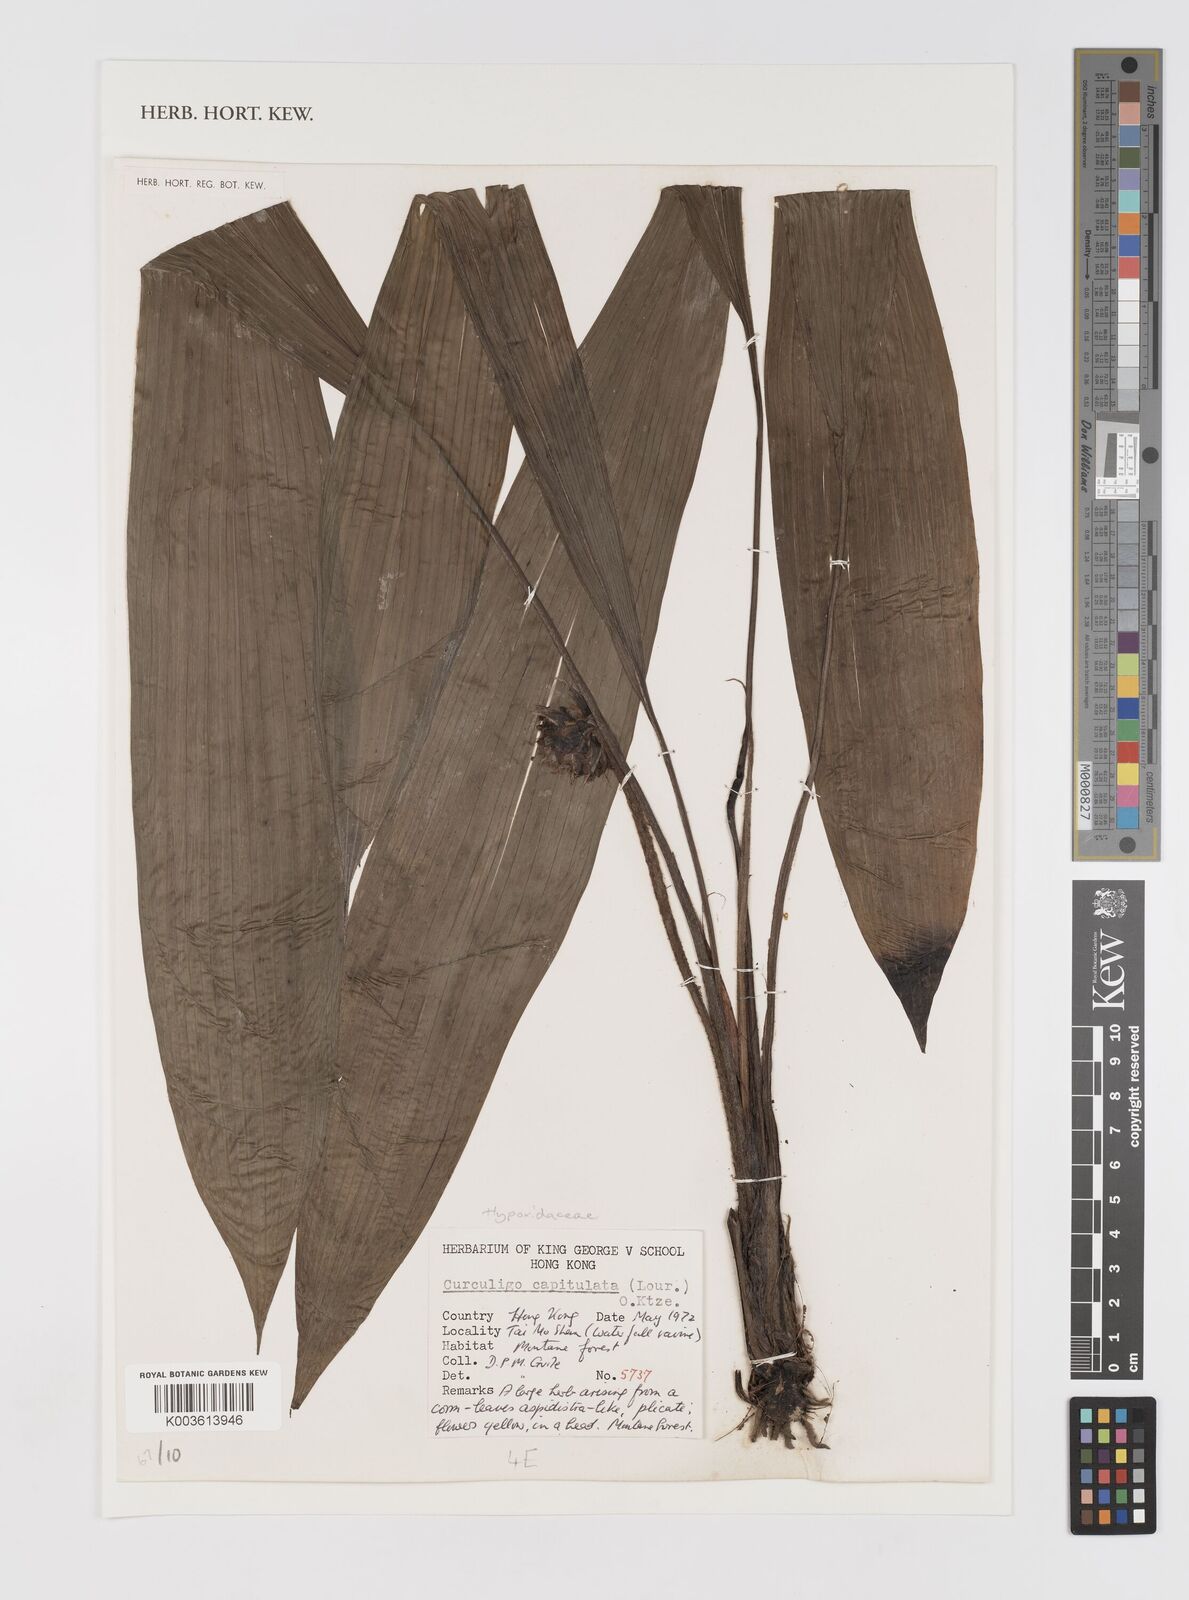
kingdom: Plantae
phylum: Tracheophyta
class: Liliopsida
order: Asparagales
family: Hypoxidaceae
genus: Curculigo
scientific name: Curculigo capitulata
